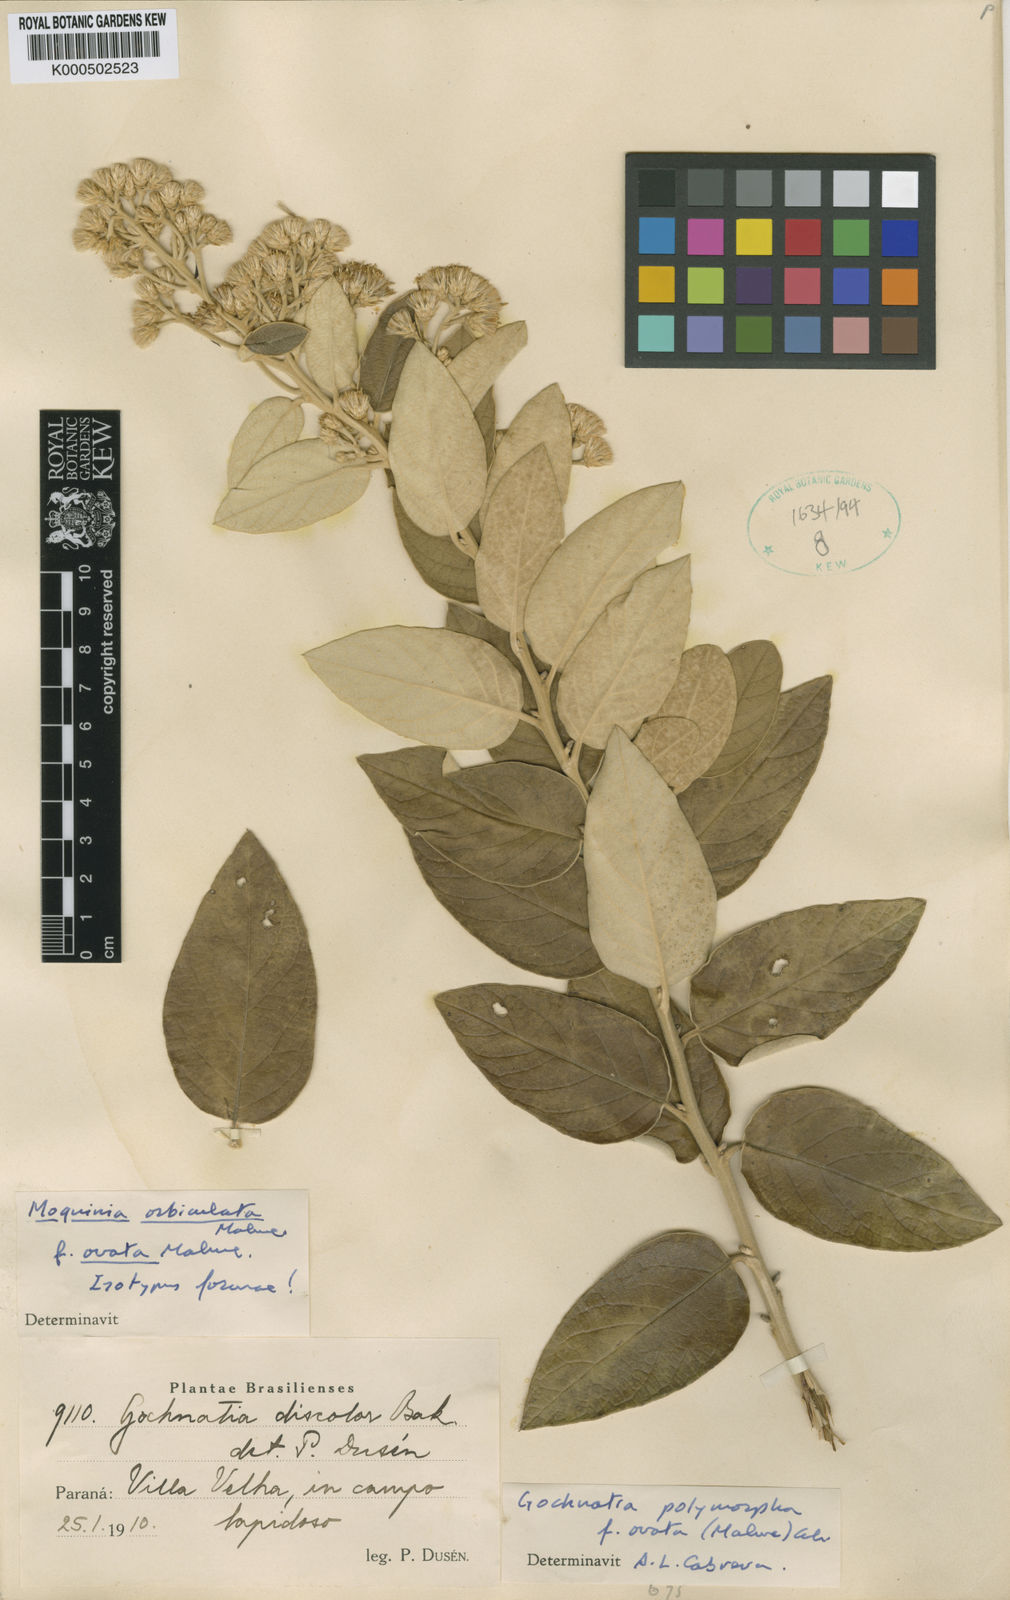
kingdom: Plantae
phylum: Tracheophyta
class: Magnoliopsida
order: Asterales
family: Asteraceae
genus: Moquiniastrum
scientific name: Moquiniastrum cinereum
